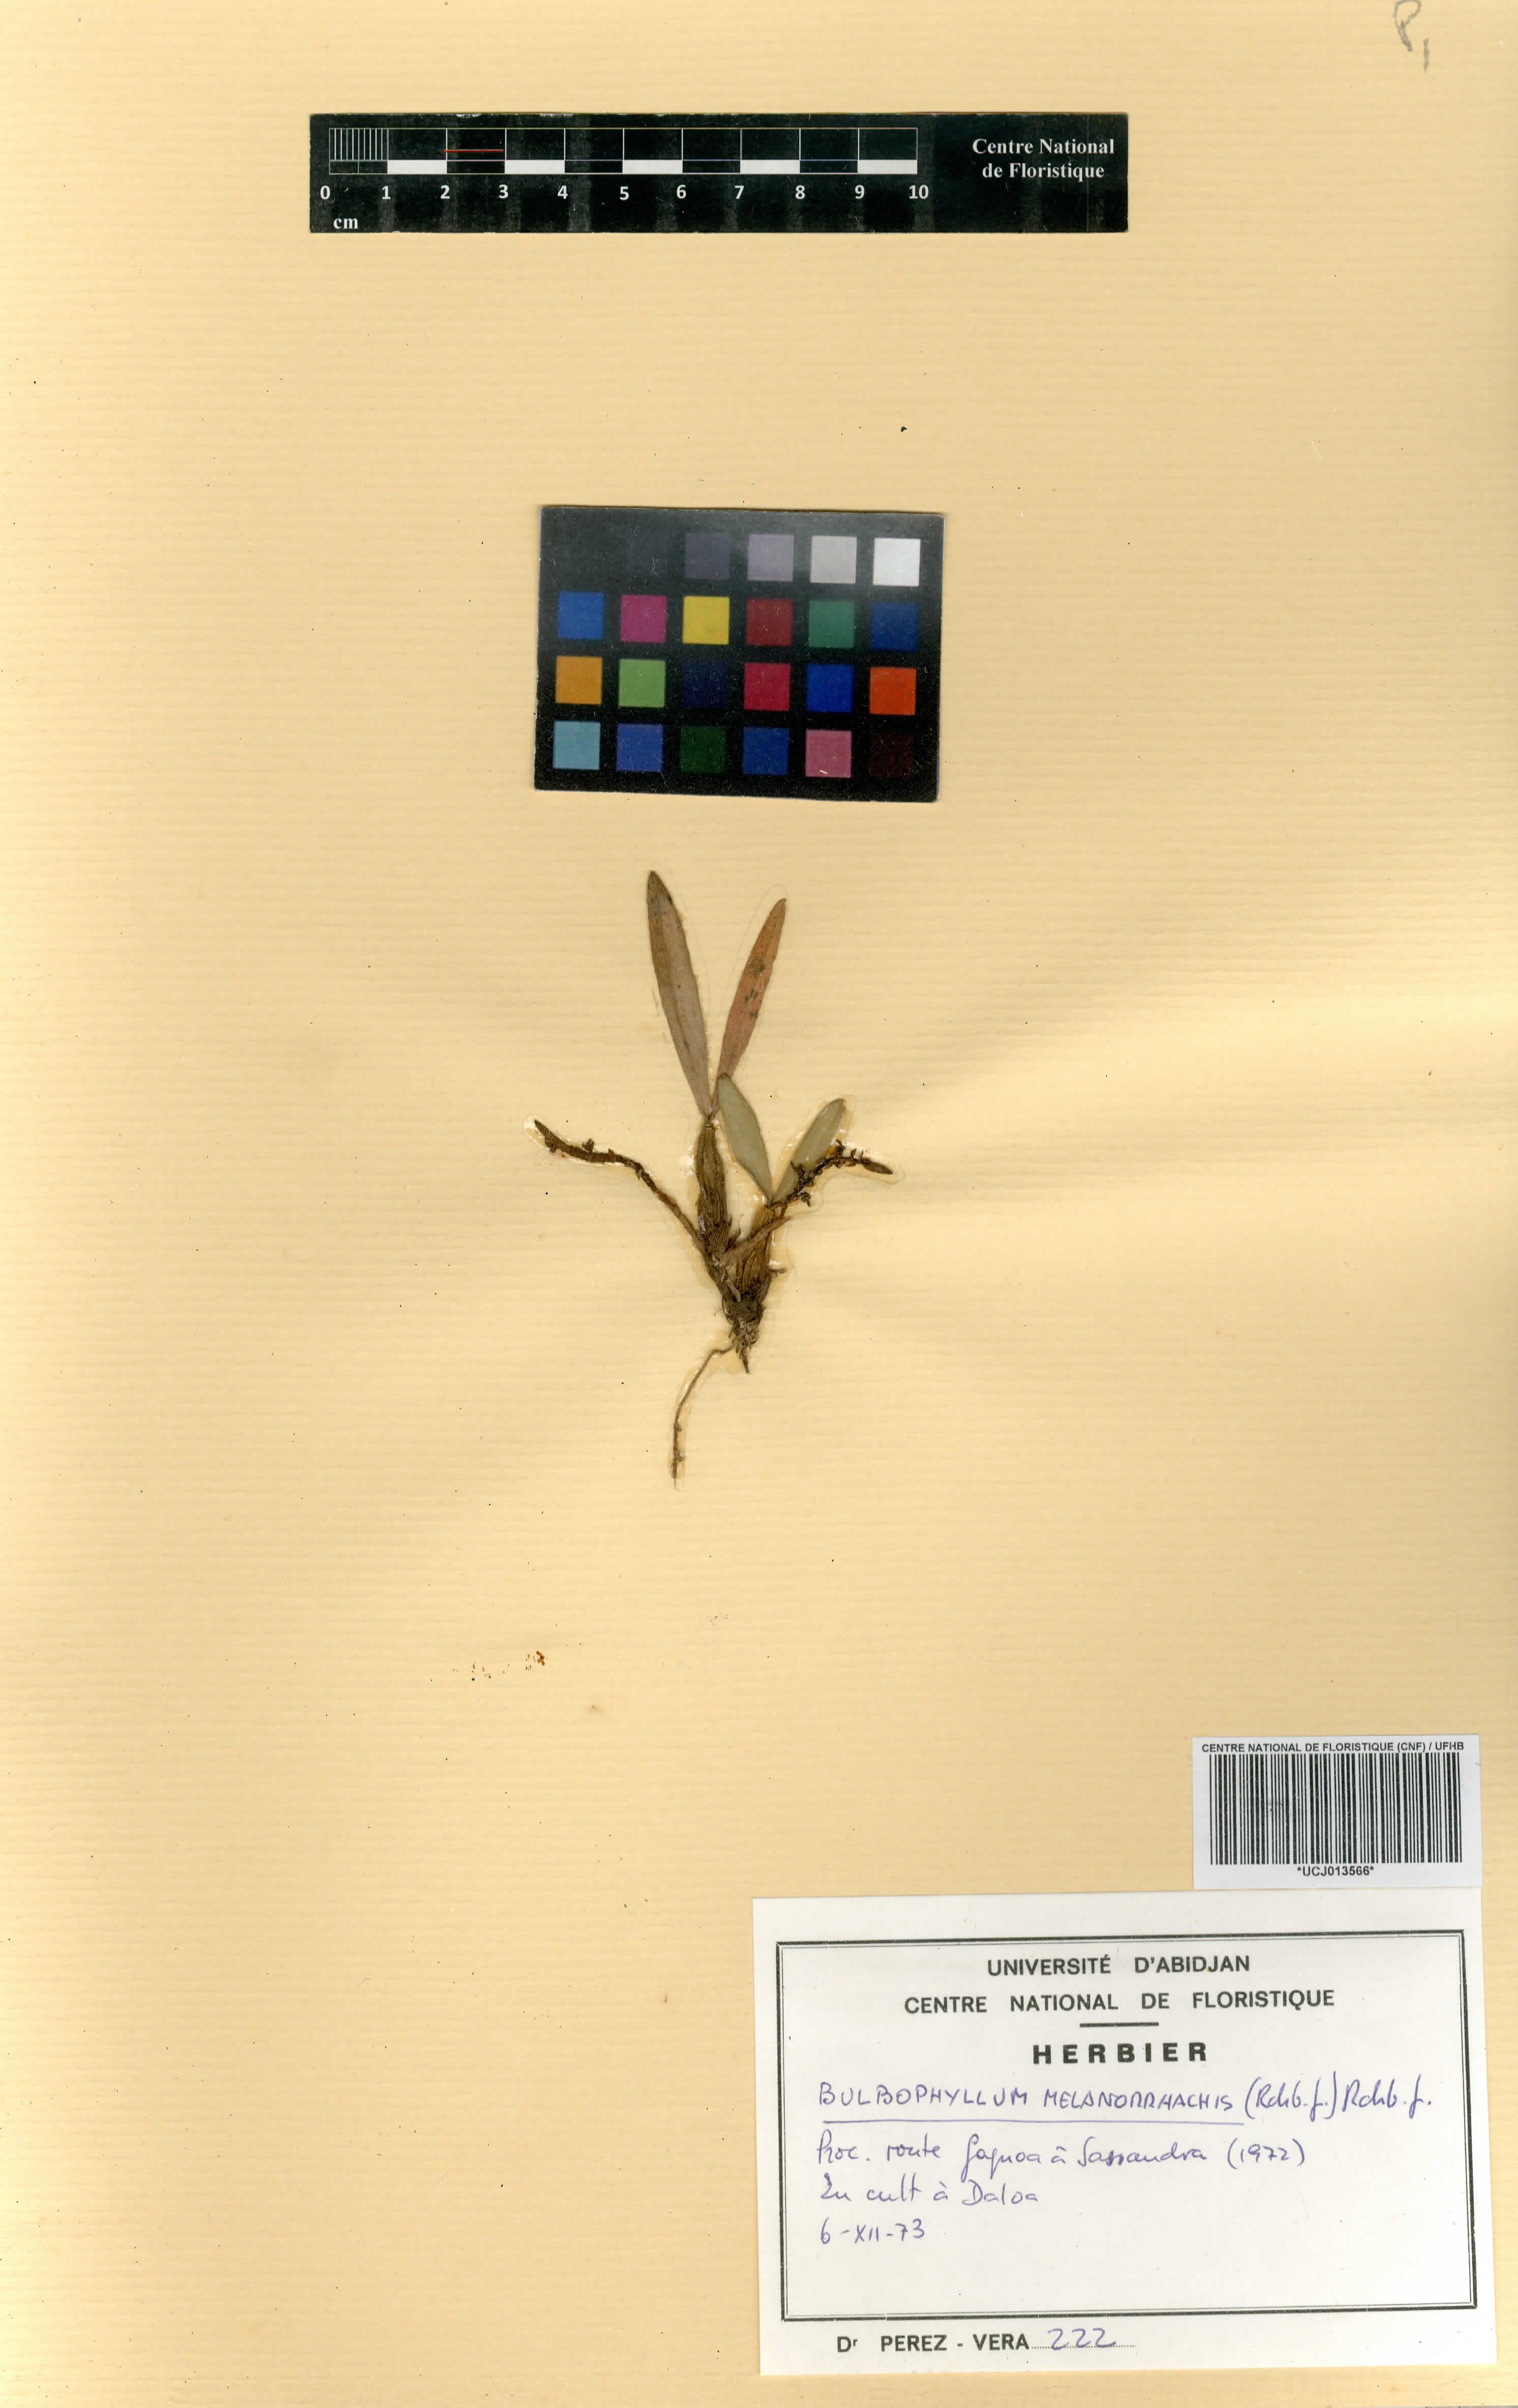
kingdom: Plantae
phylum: Tracheophyta
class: Liliopsida
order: Asparagales
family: Orchidaceae
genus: Bulbophyllum
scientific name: Bulbophyllum falcatum
